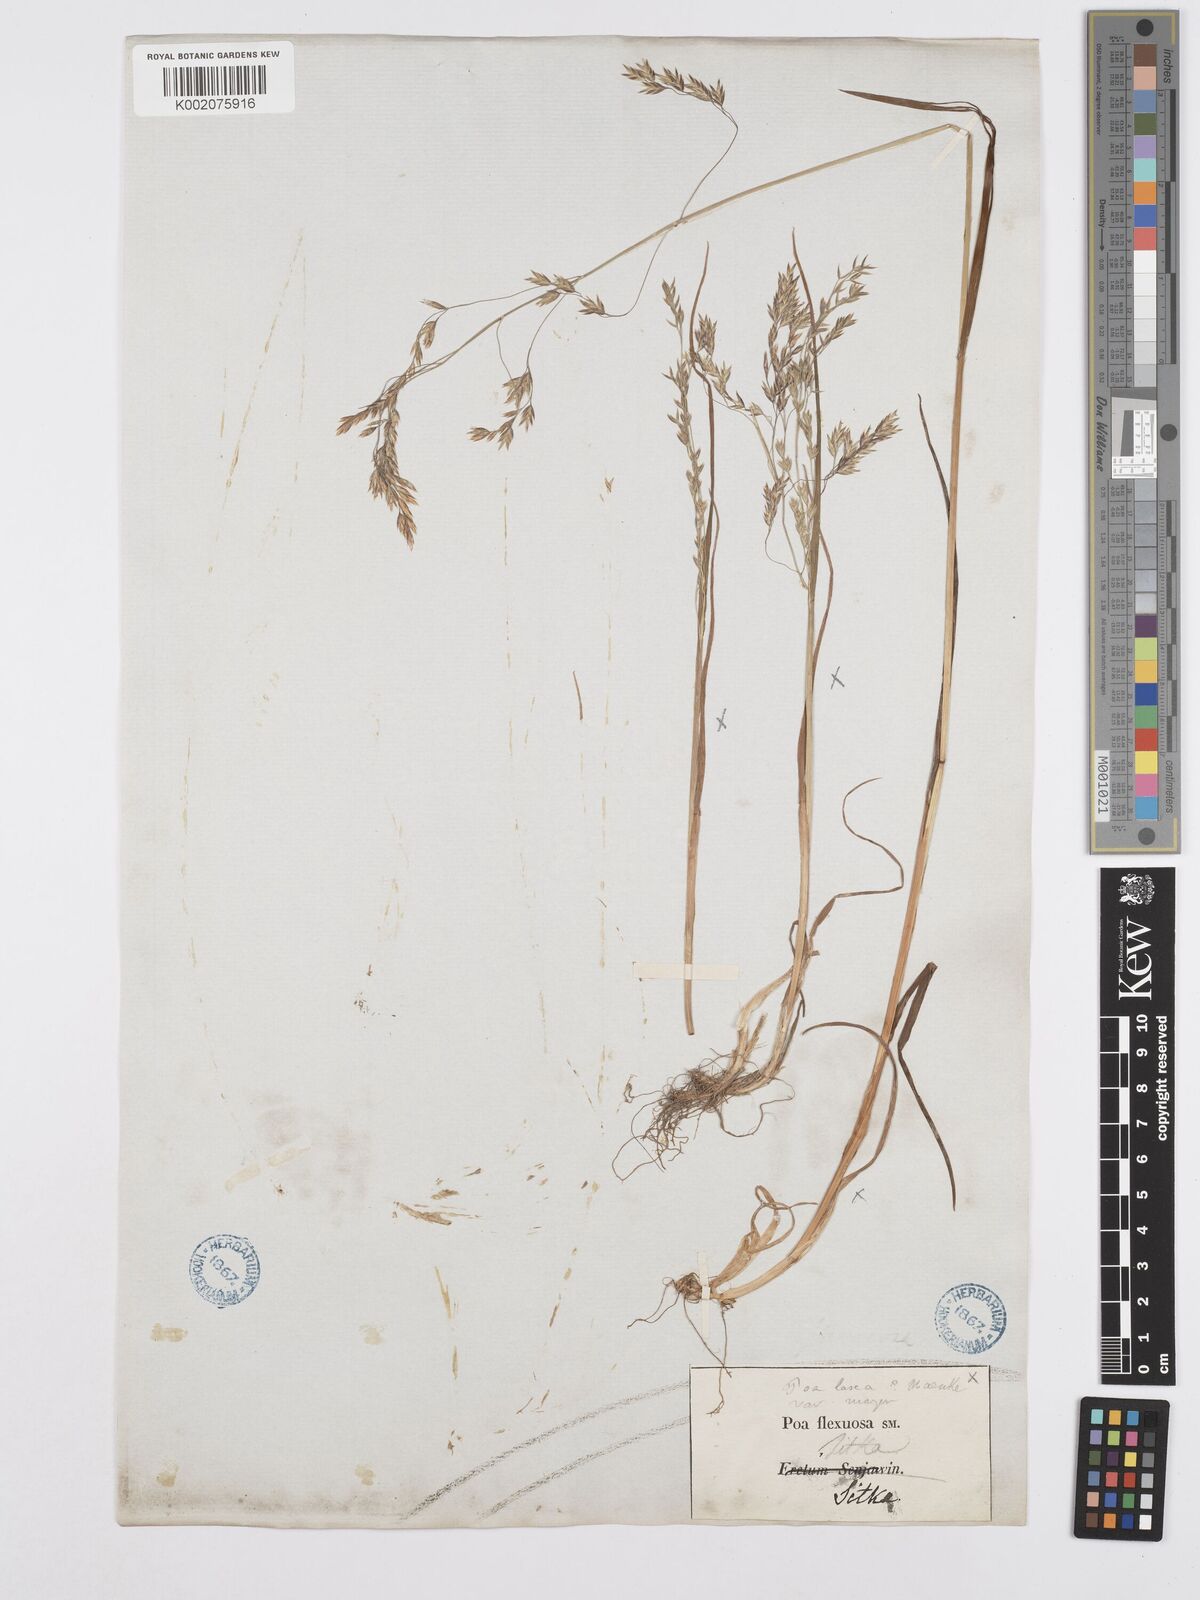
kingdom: Plantae
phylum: Tracheophyta
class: Liliopsida
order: Poales
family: Poaceae
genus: Poa
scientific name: Poa autumnalis
